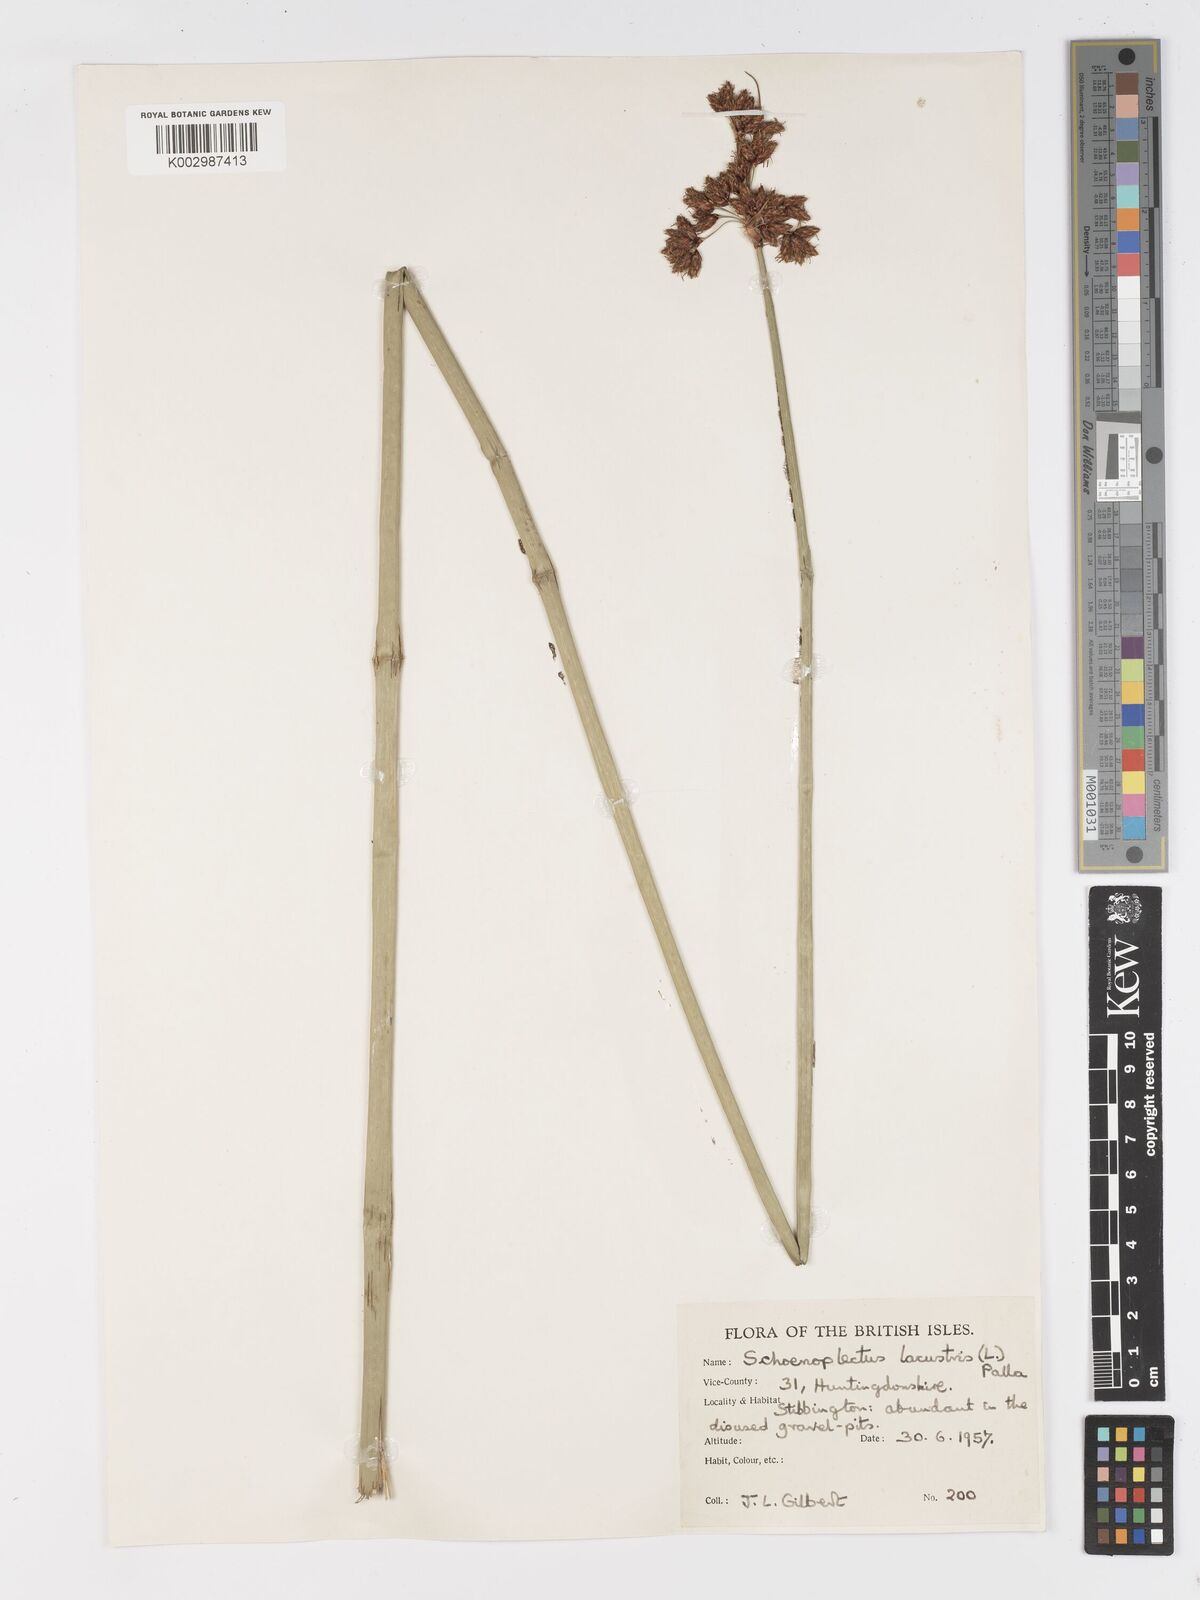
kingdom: Plantae
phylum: Tracheophyta
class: Liliopsida
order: Poales
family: Cyperaceae
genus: Schoenoplectus
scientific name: Schoenoplectus lacustris
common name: Common club-rush
